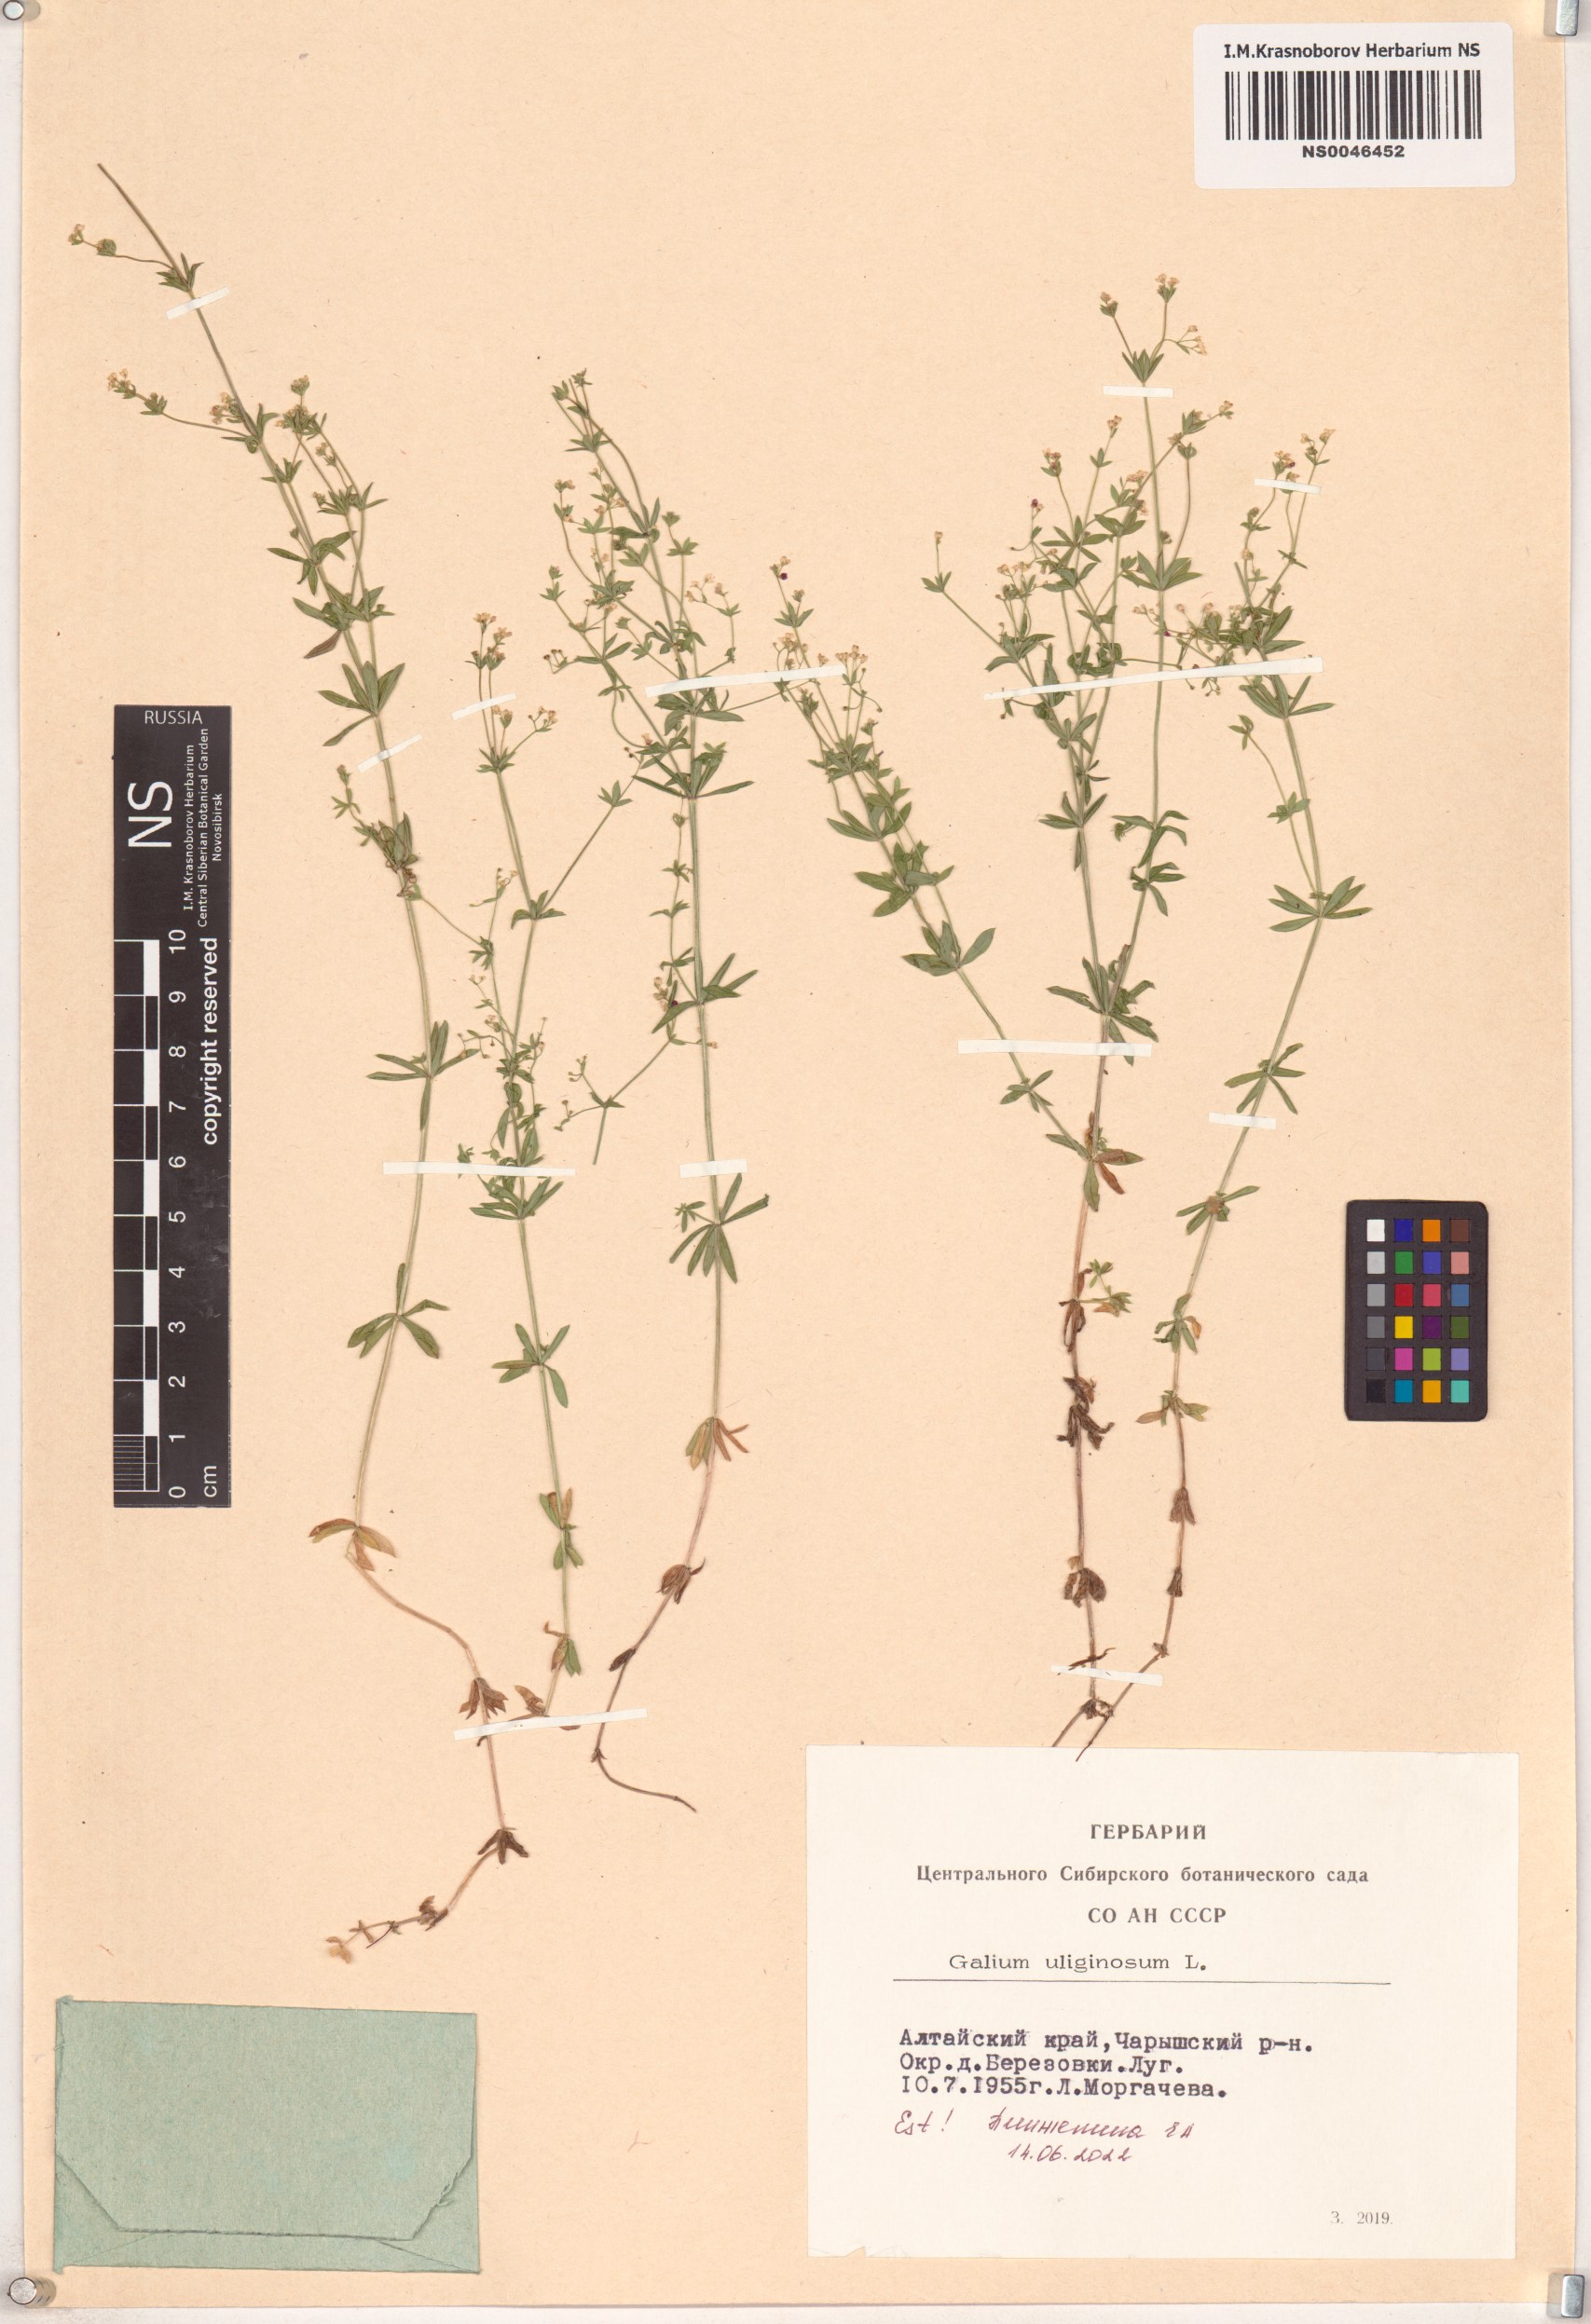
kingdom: Plantae
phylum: Tracheophyta
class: Magnoliopsida
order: Gentianales
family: Rubiaceae
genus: Galium
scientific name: Galium uliginosum
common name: Fen bedstraw
